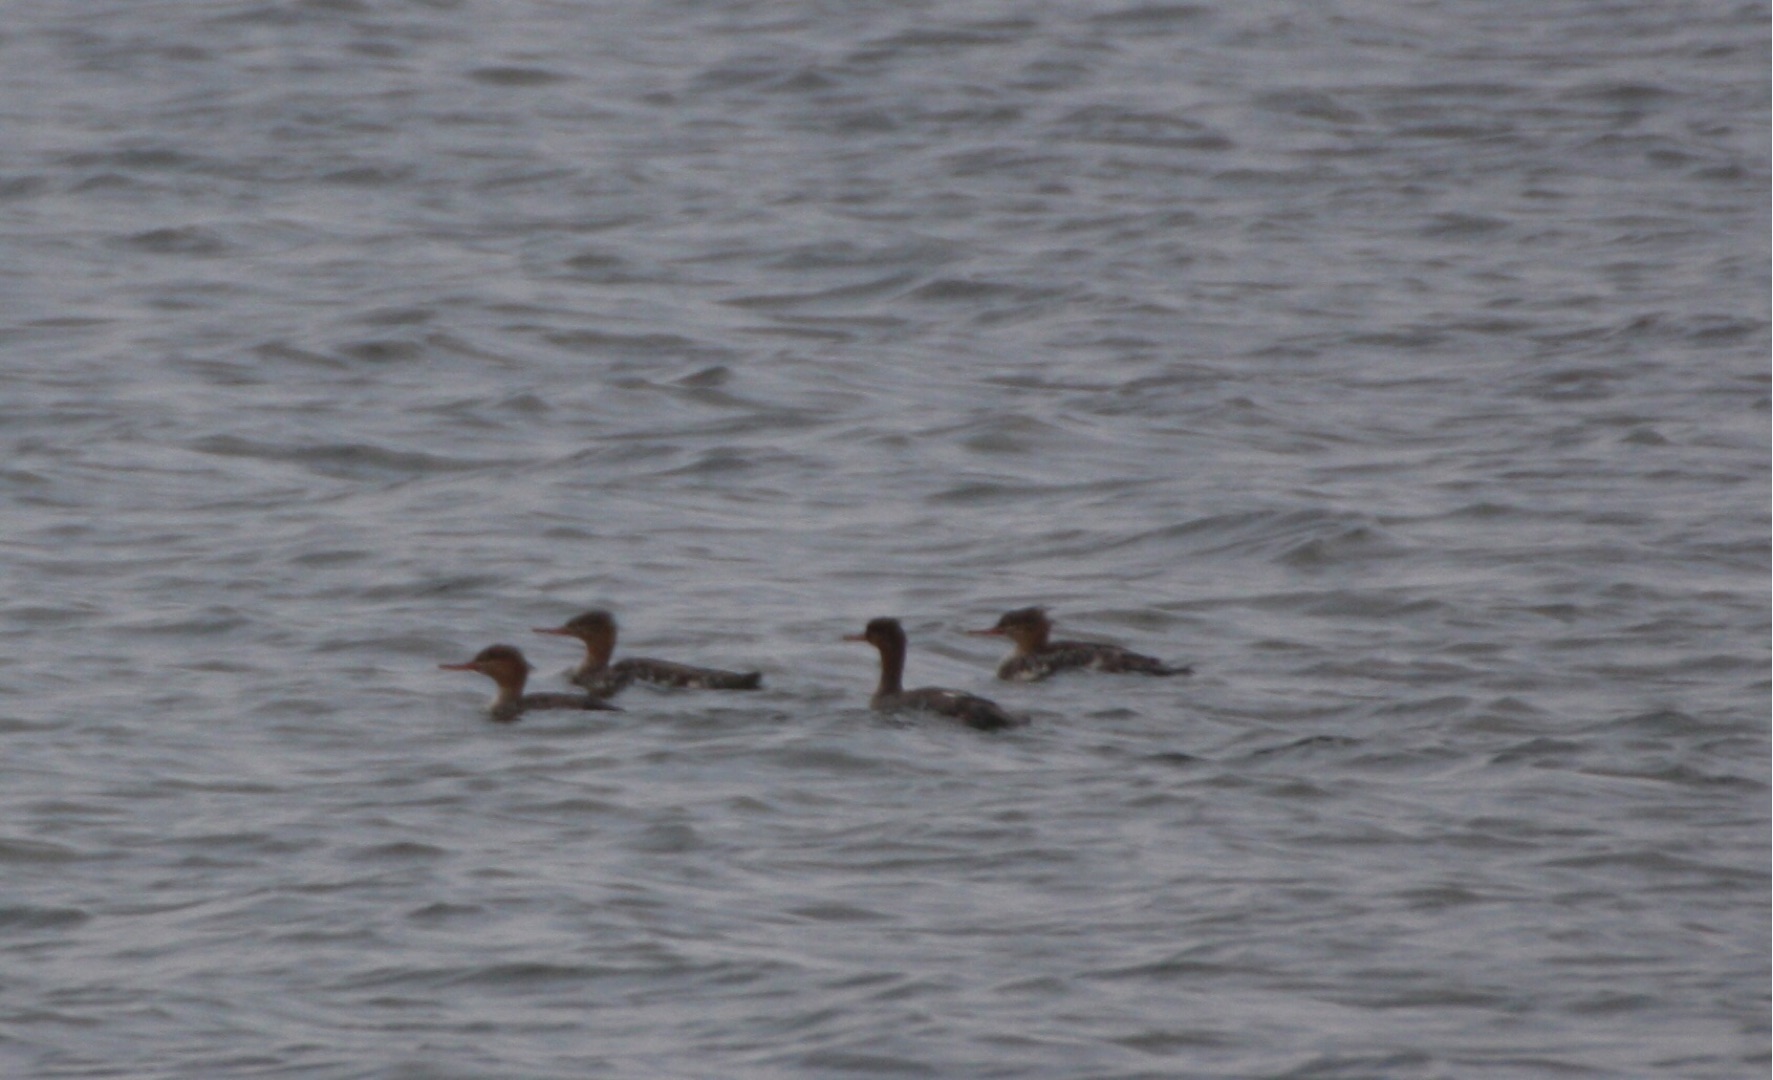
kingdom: Animalia
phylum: Chordata
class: Aves
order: Anseriformes
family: Anatidae
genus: Mergus
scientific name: Mergus serrator
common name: Toppet skallesluger
